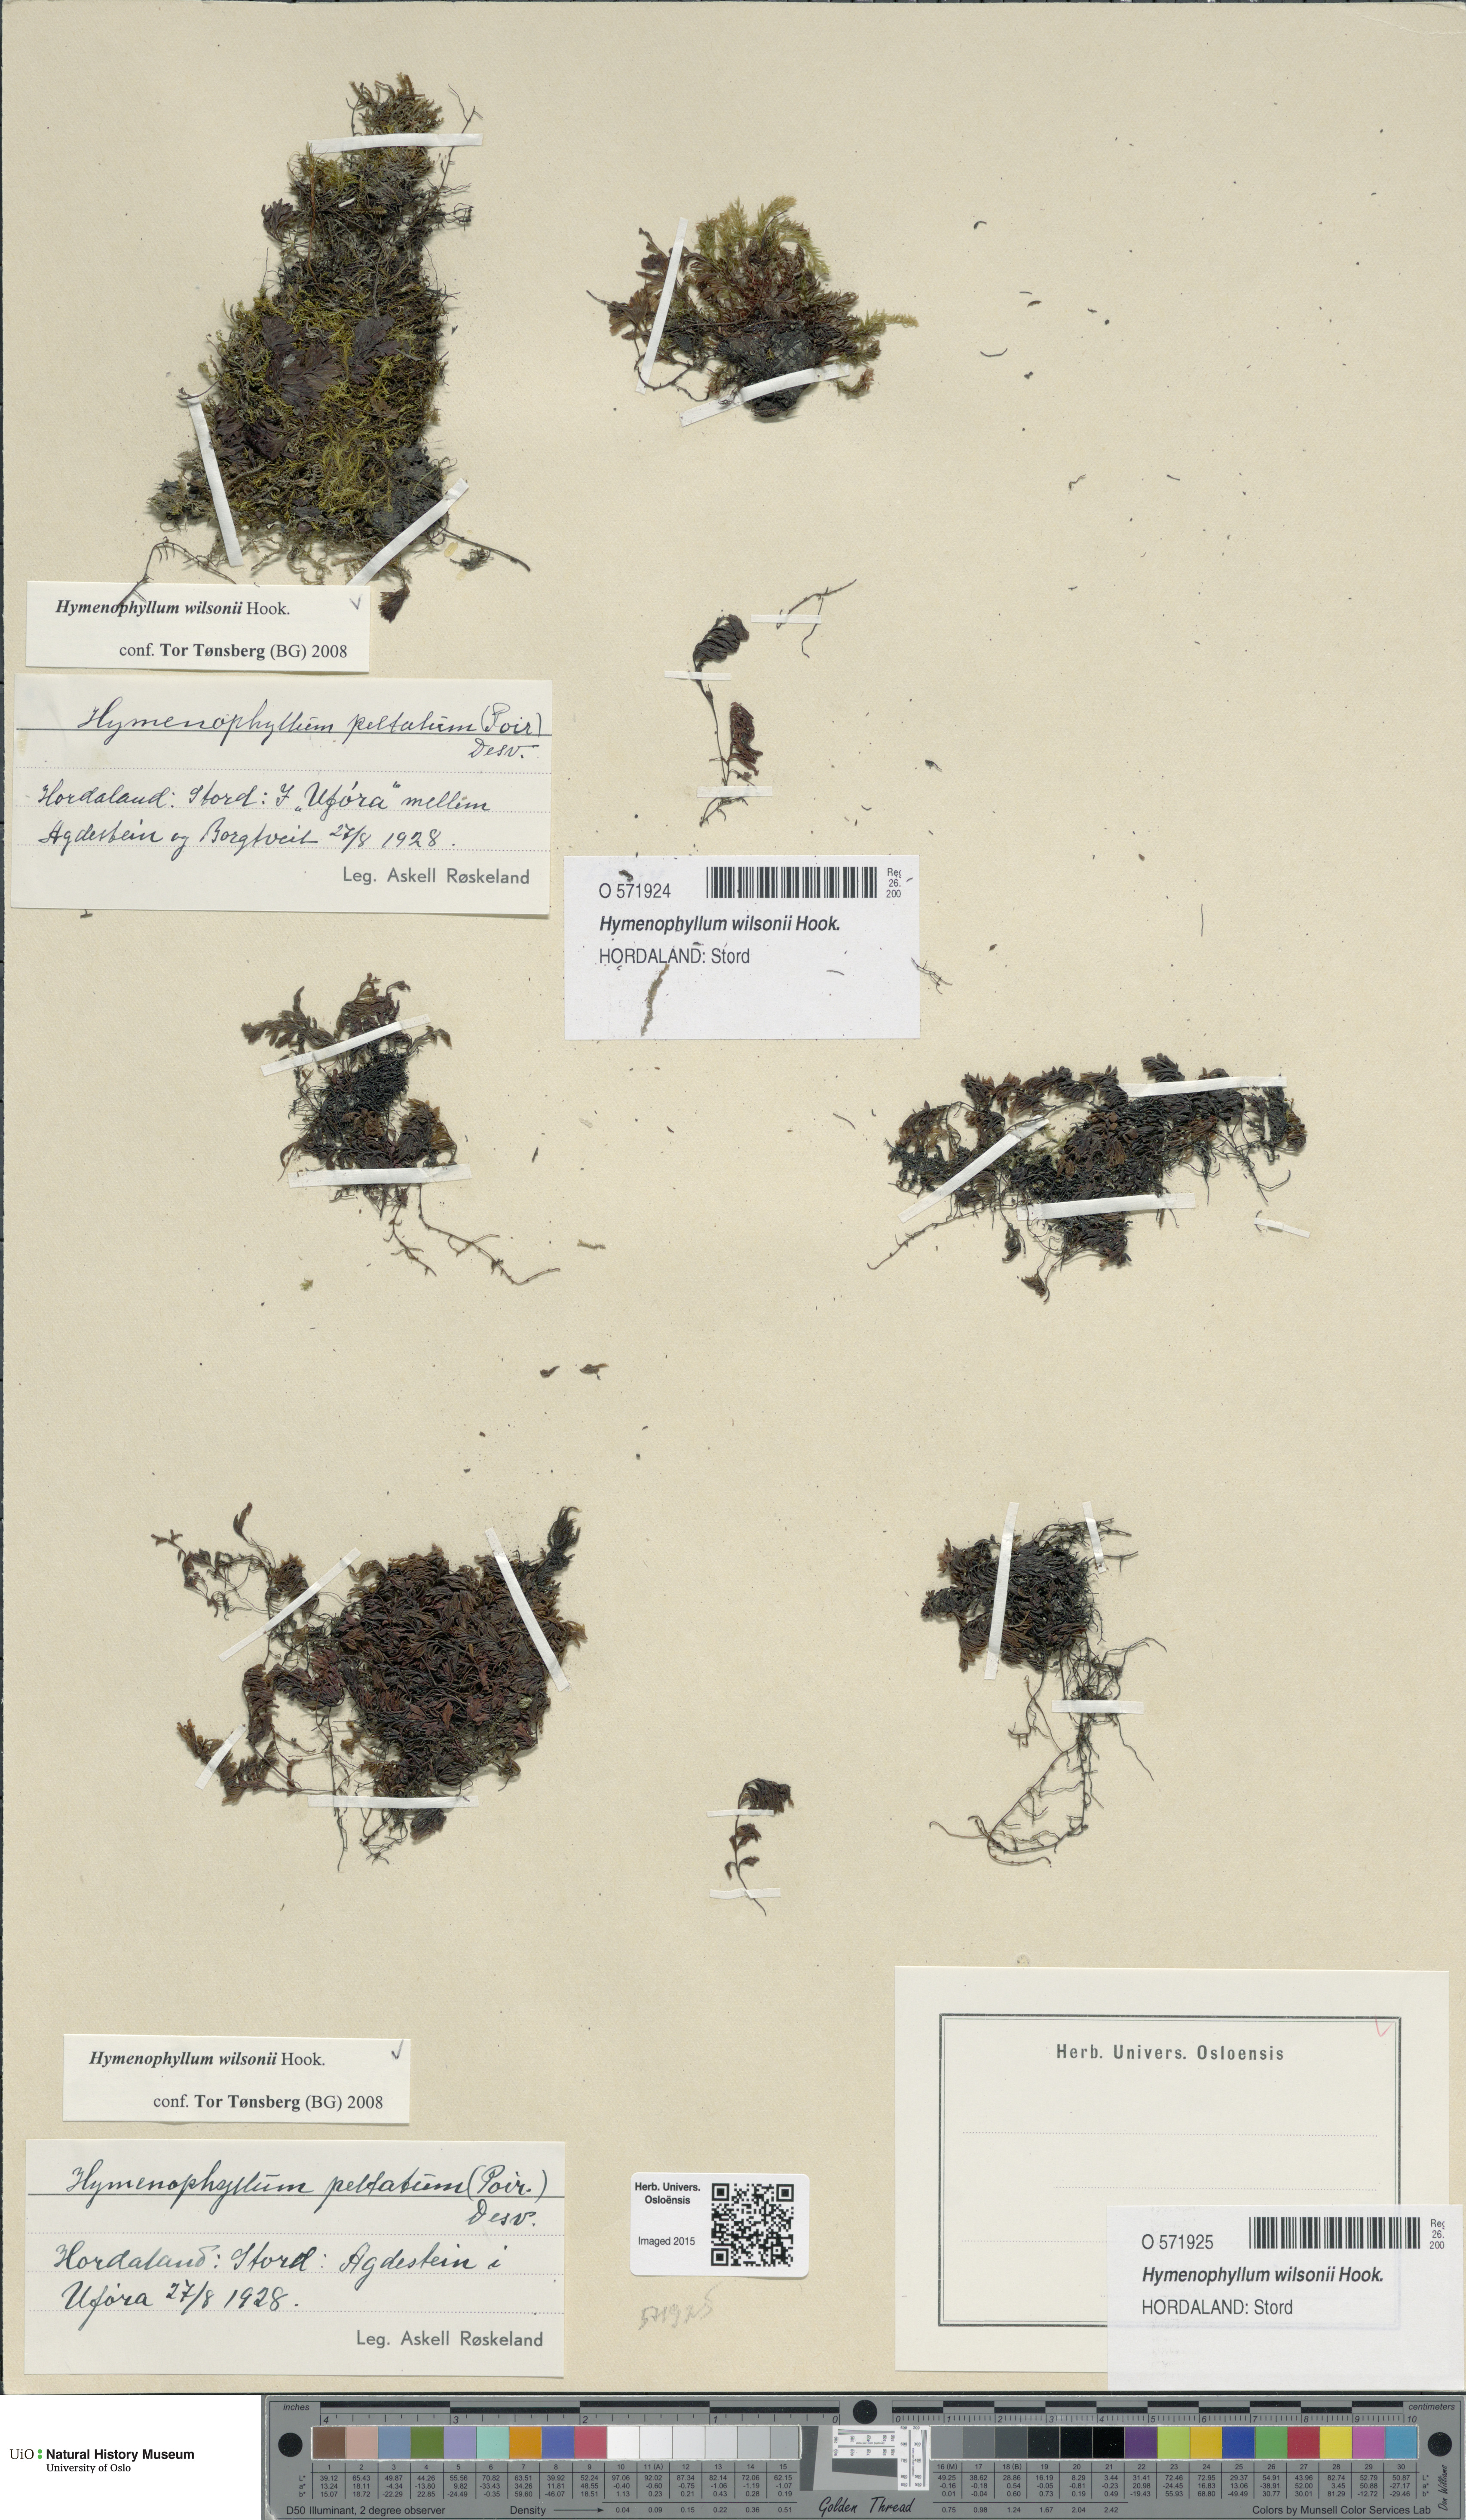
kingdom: Plantae
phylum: Tracheophyta
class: Polypodiopsida
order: Hymenophyllales
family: Hymenophyllaceae
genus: Hymenophyllum
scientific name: Hymenophyllum peltatum
